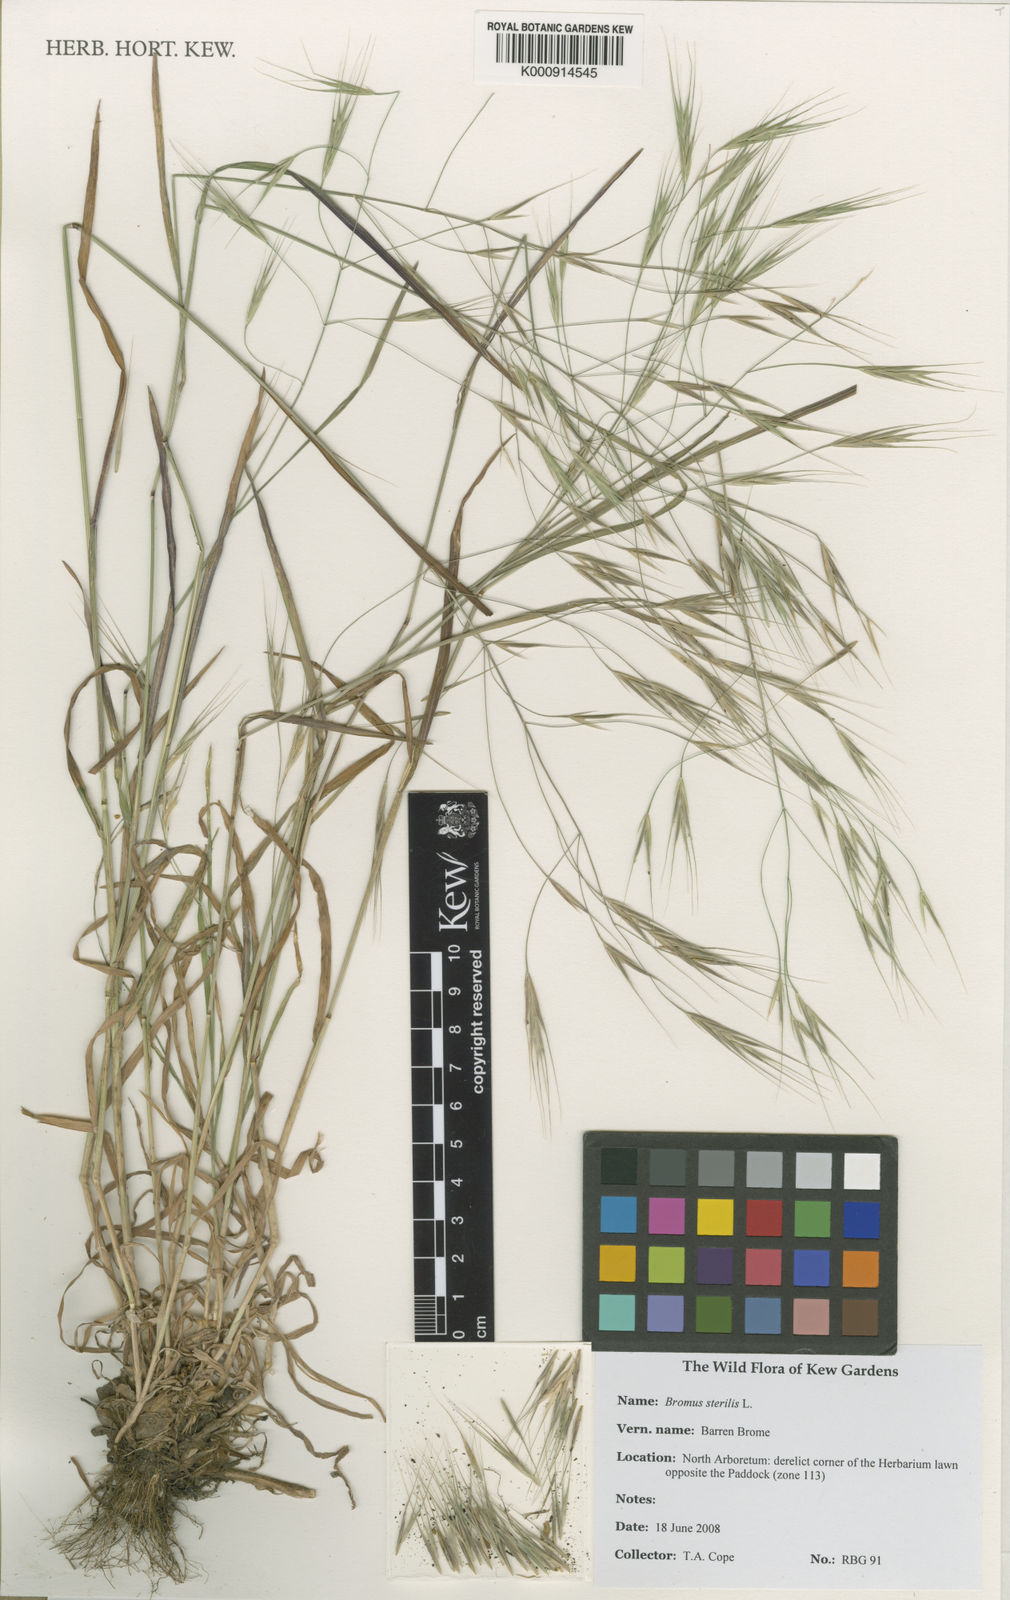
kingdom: Plantae
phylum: Tracheophyta
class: Liliopsida
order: Poales
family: Poaceae
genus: Bromus
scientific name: Bromus sterilis
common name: Poverty brome
